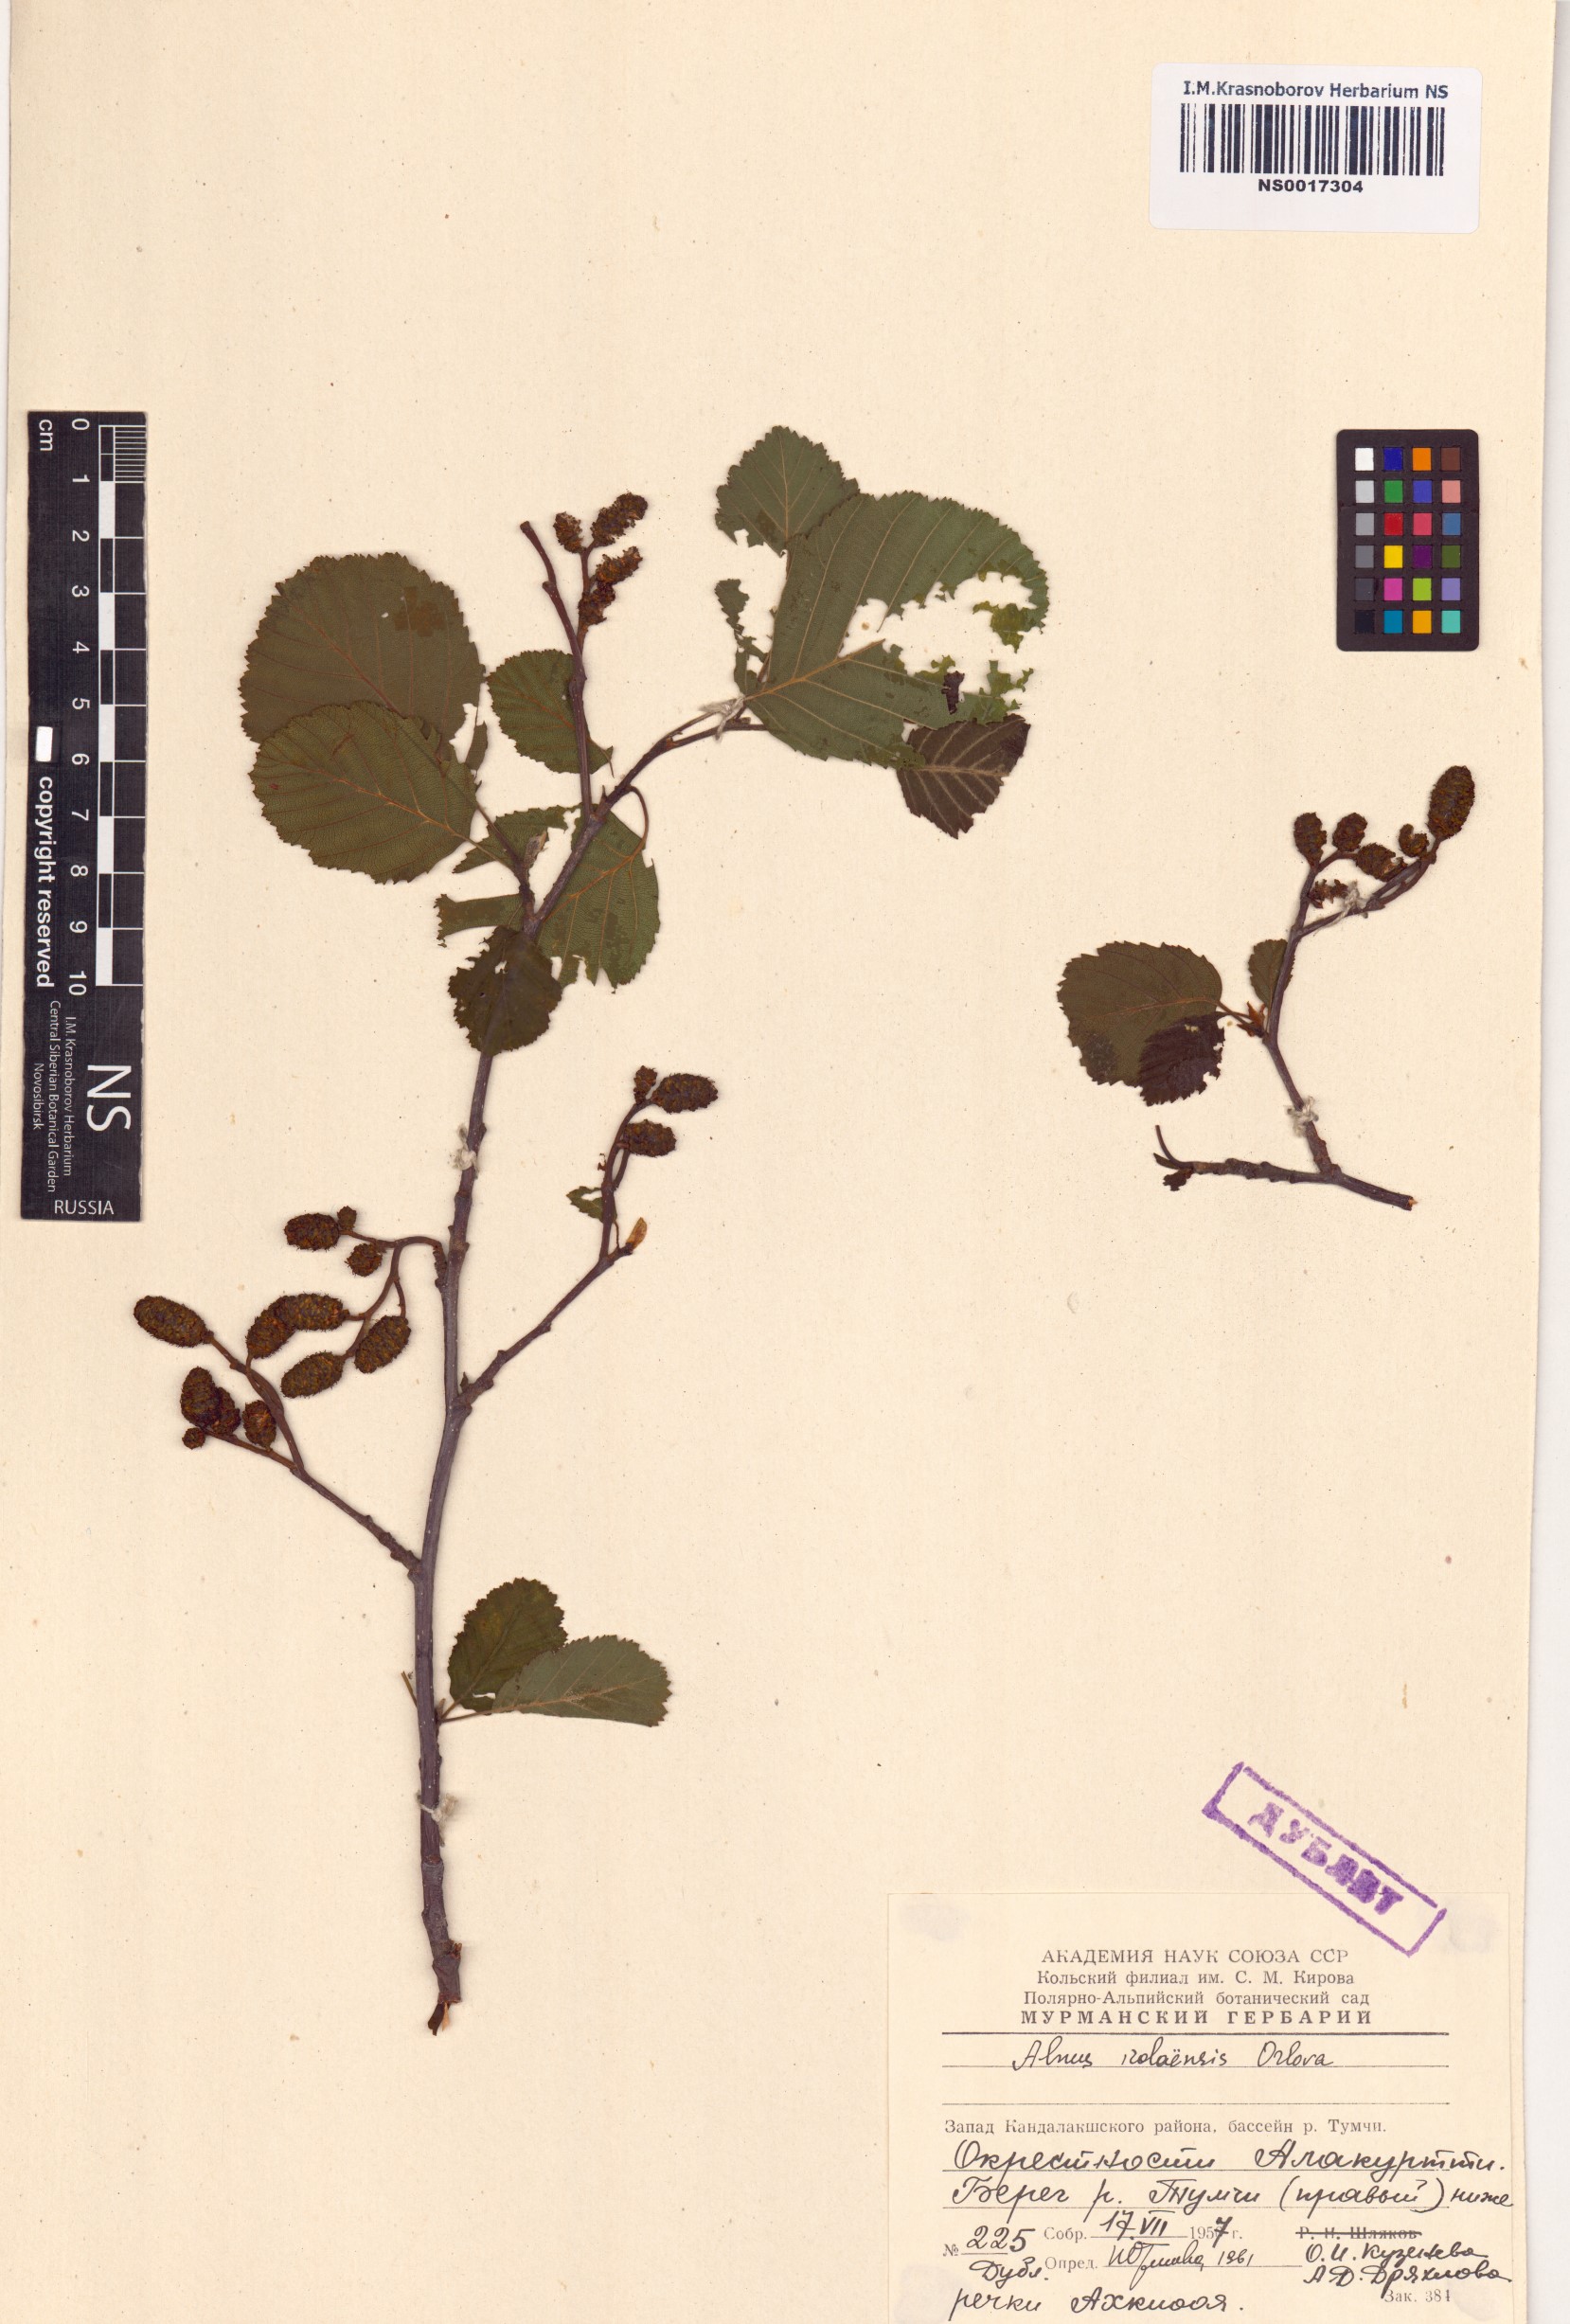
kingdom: Plantae
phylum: Tracheophyta
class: Magnoliopsida
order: Fagales
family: Betulaceae
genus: Alnus
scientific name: Alnus incana
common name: Grey alder
